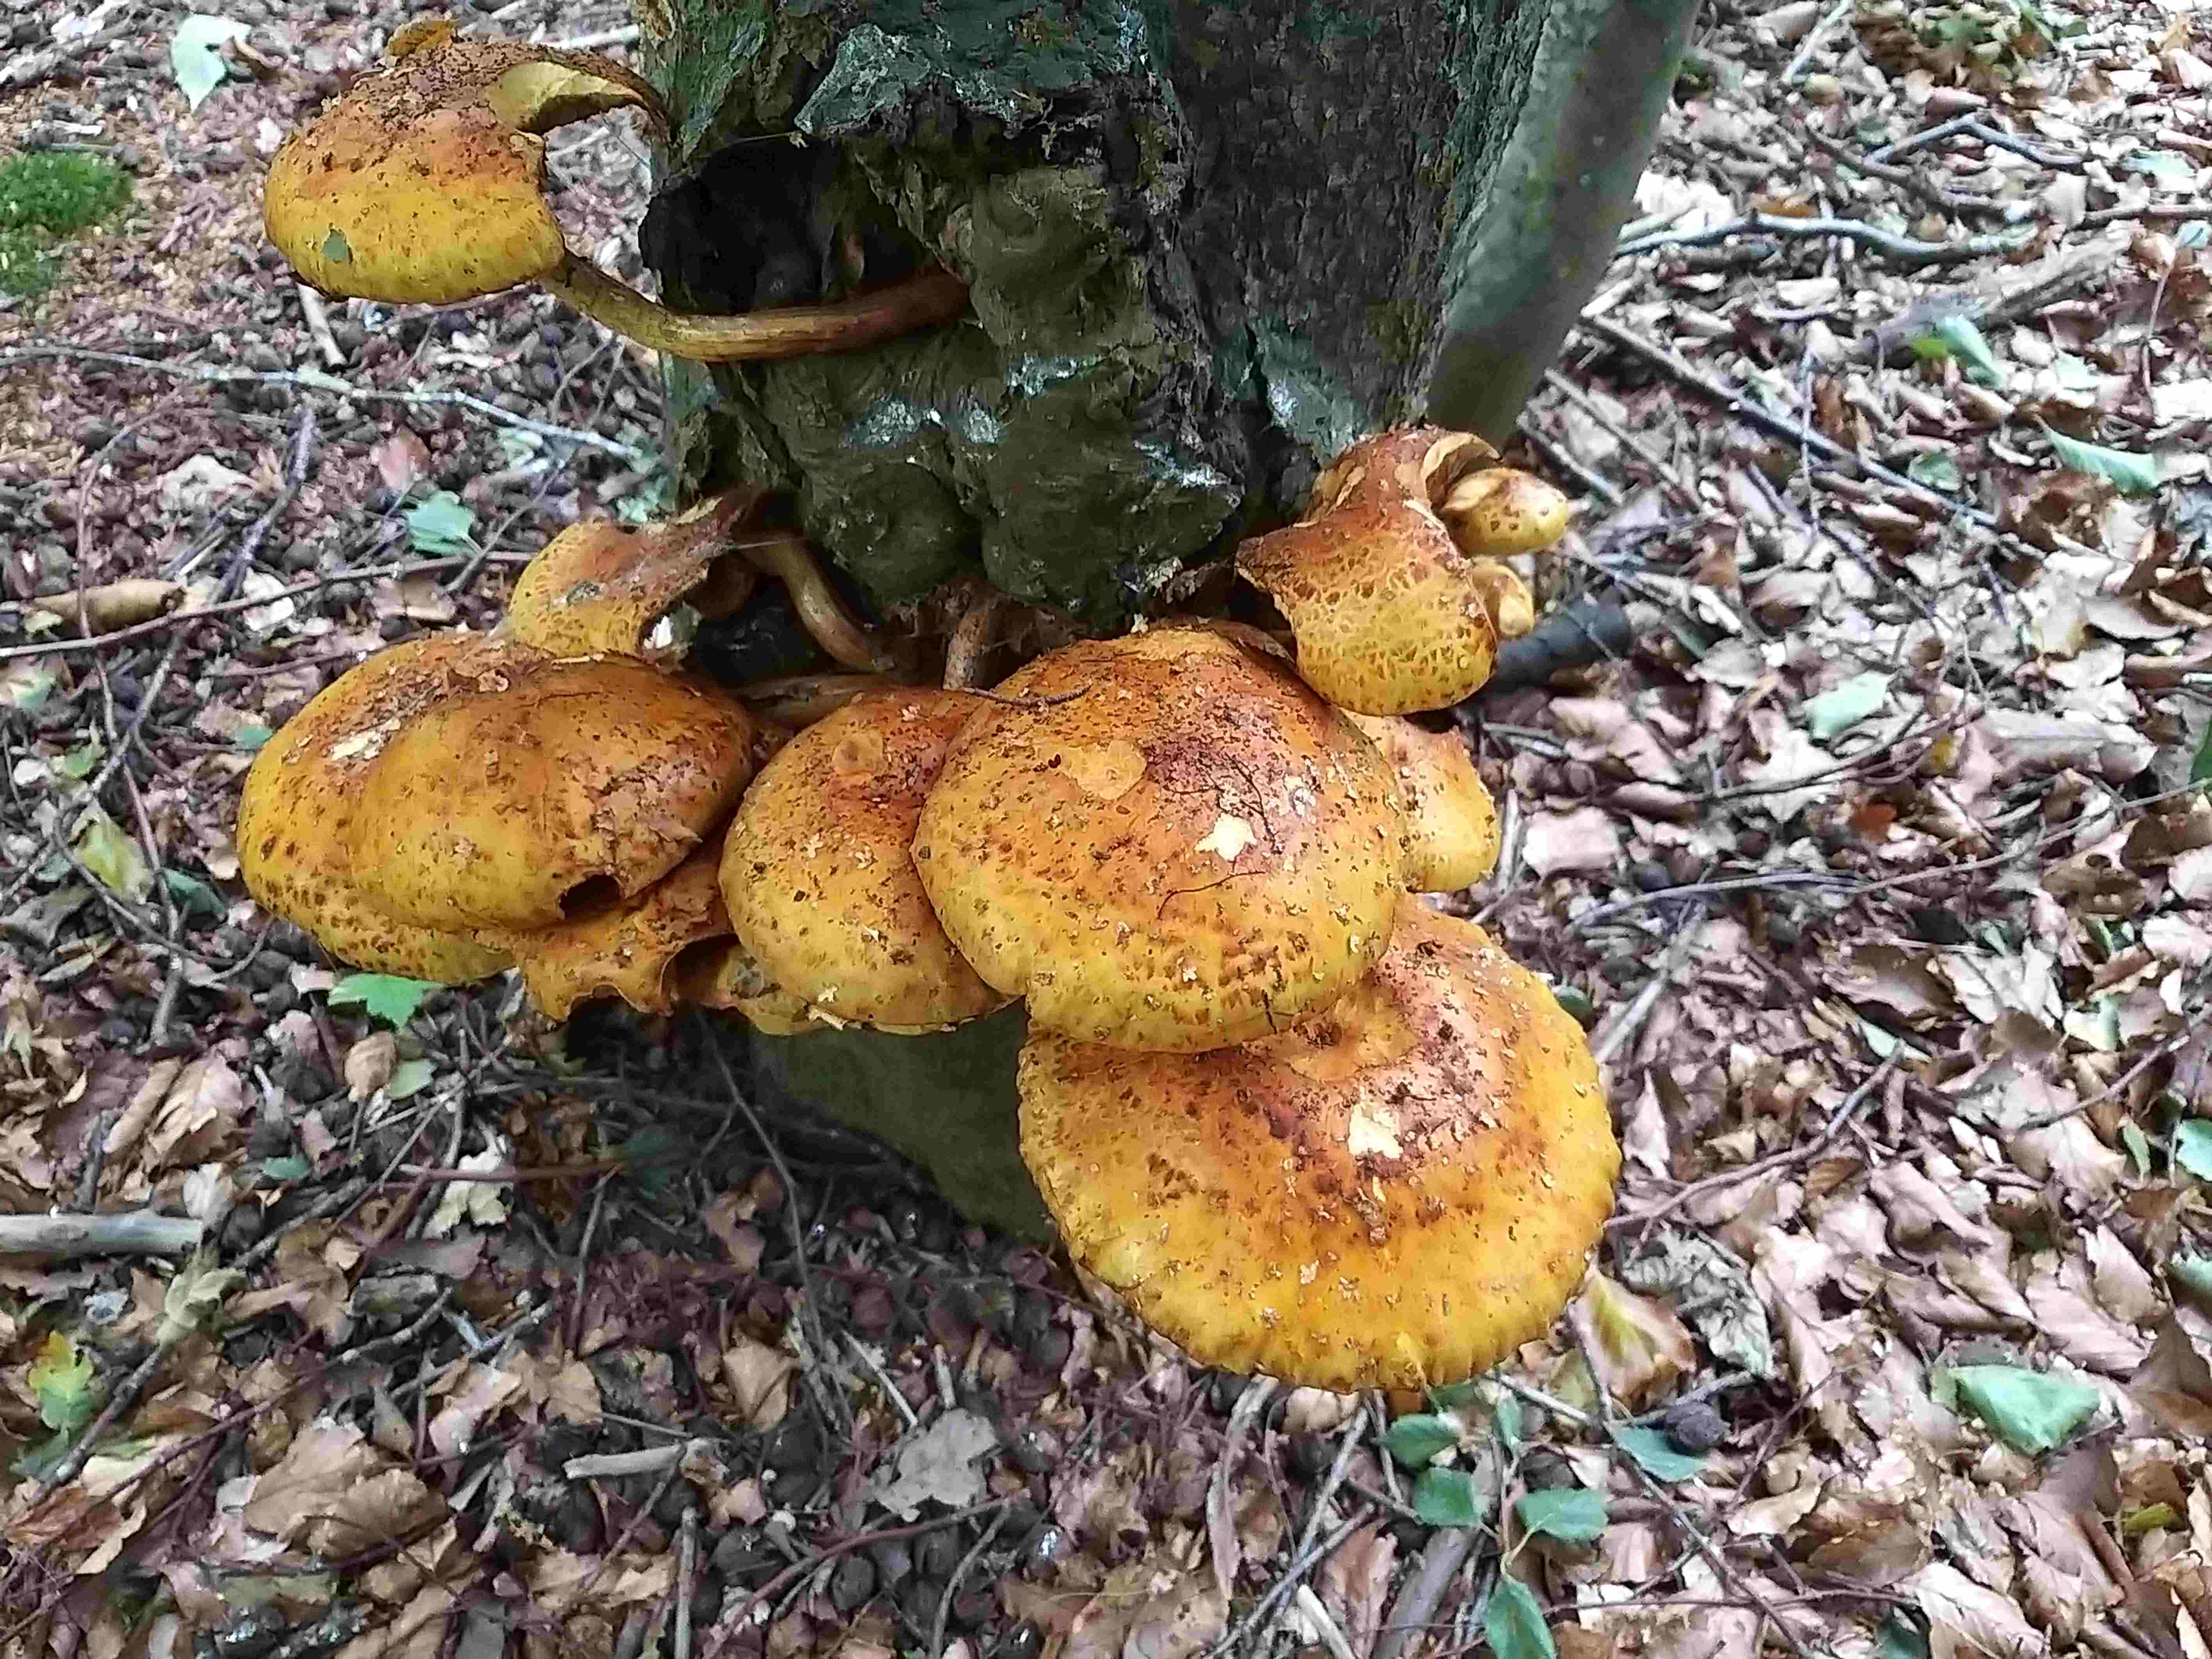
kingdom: Fungi
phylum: Basidiomycota
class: Agaricomycetes
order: Agaricales
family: Strophariaceae
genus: Pholiota
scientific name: Pholiota adiposa
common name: højtsiddende skælhat
